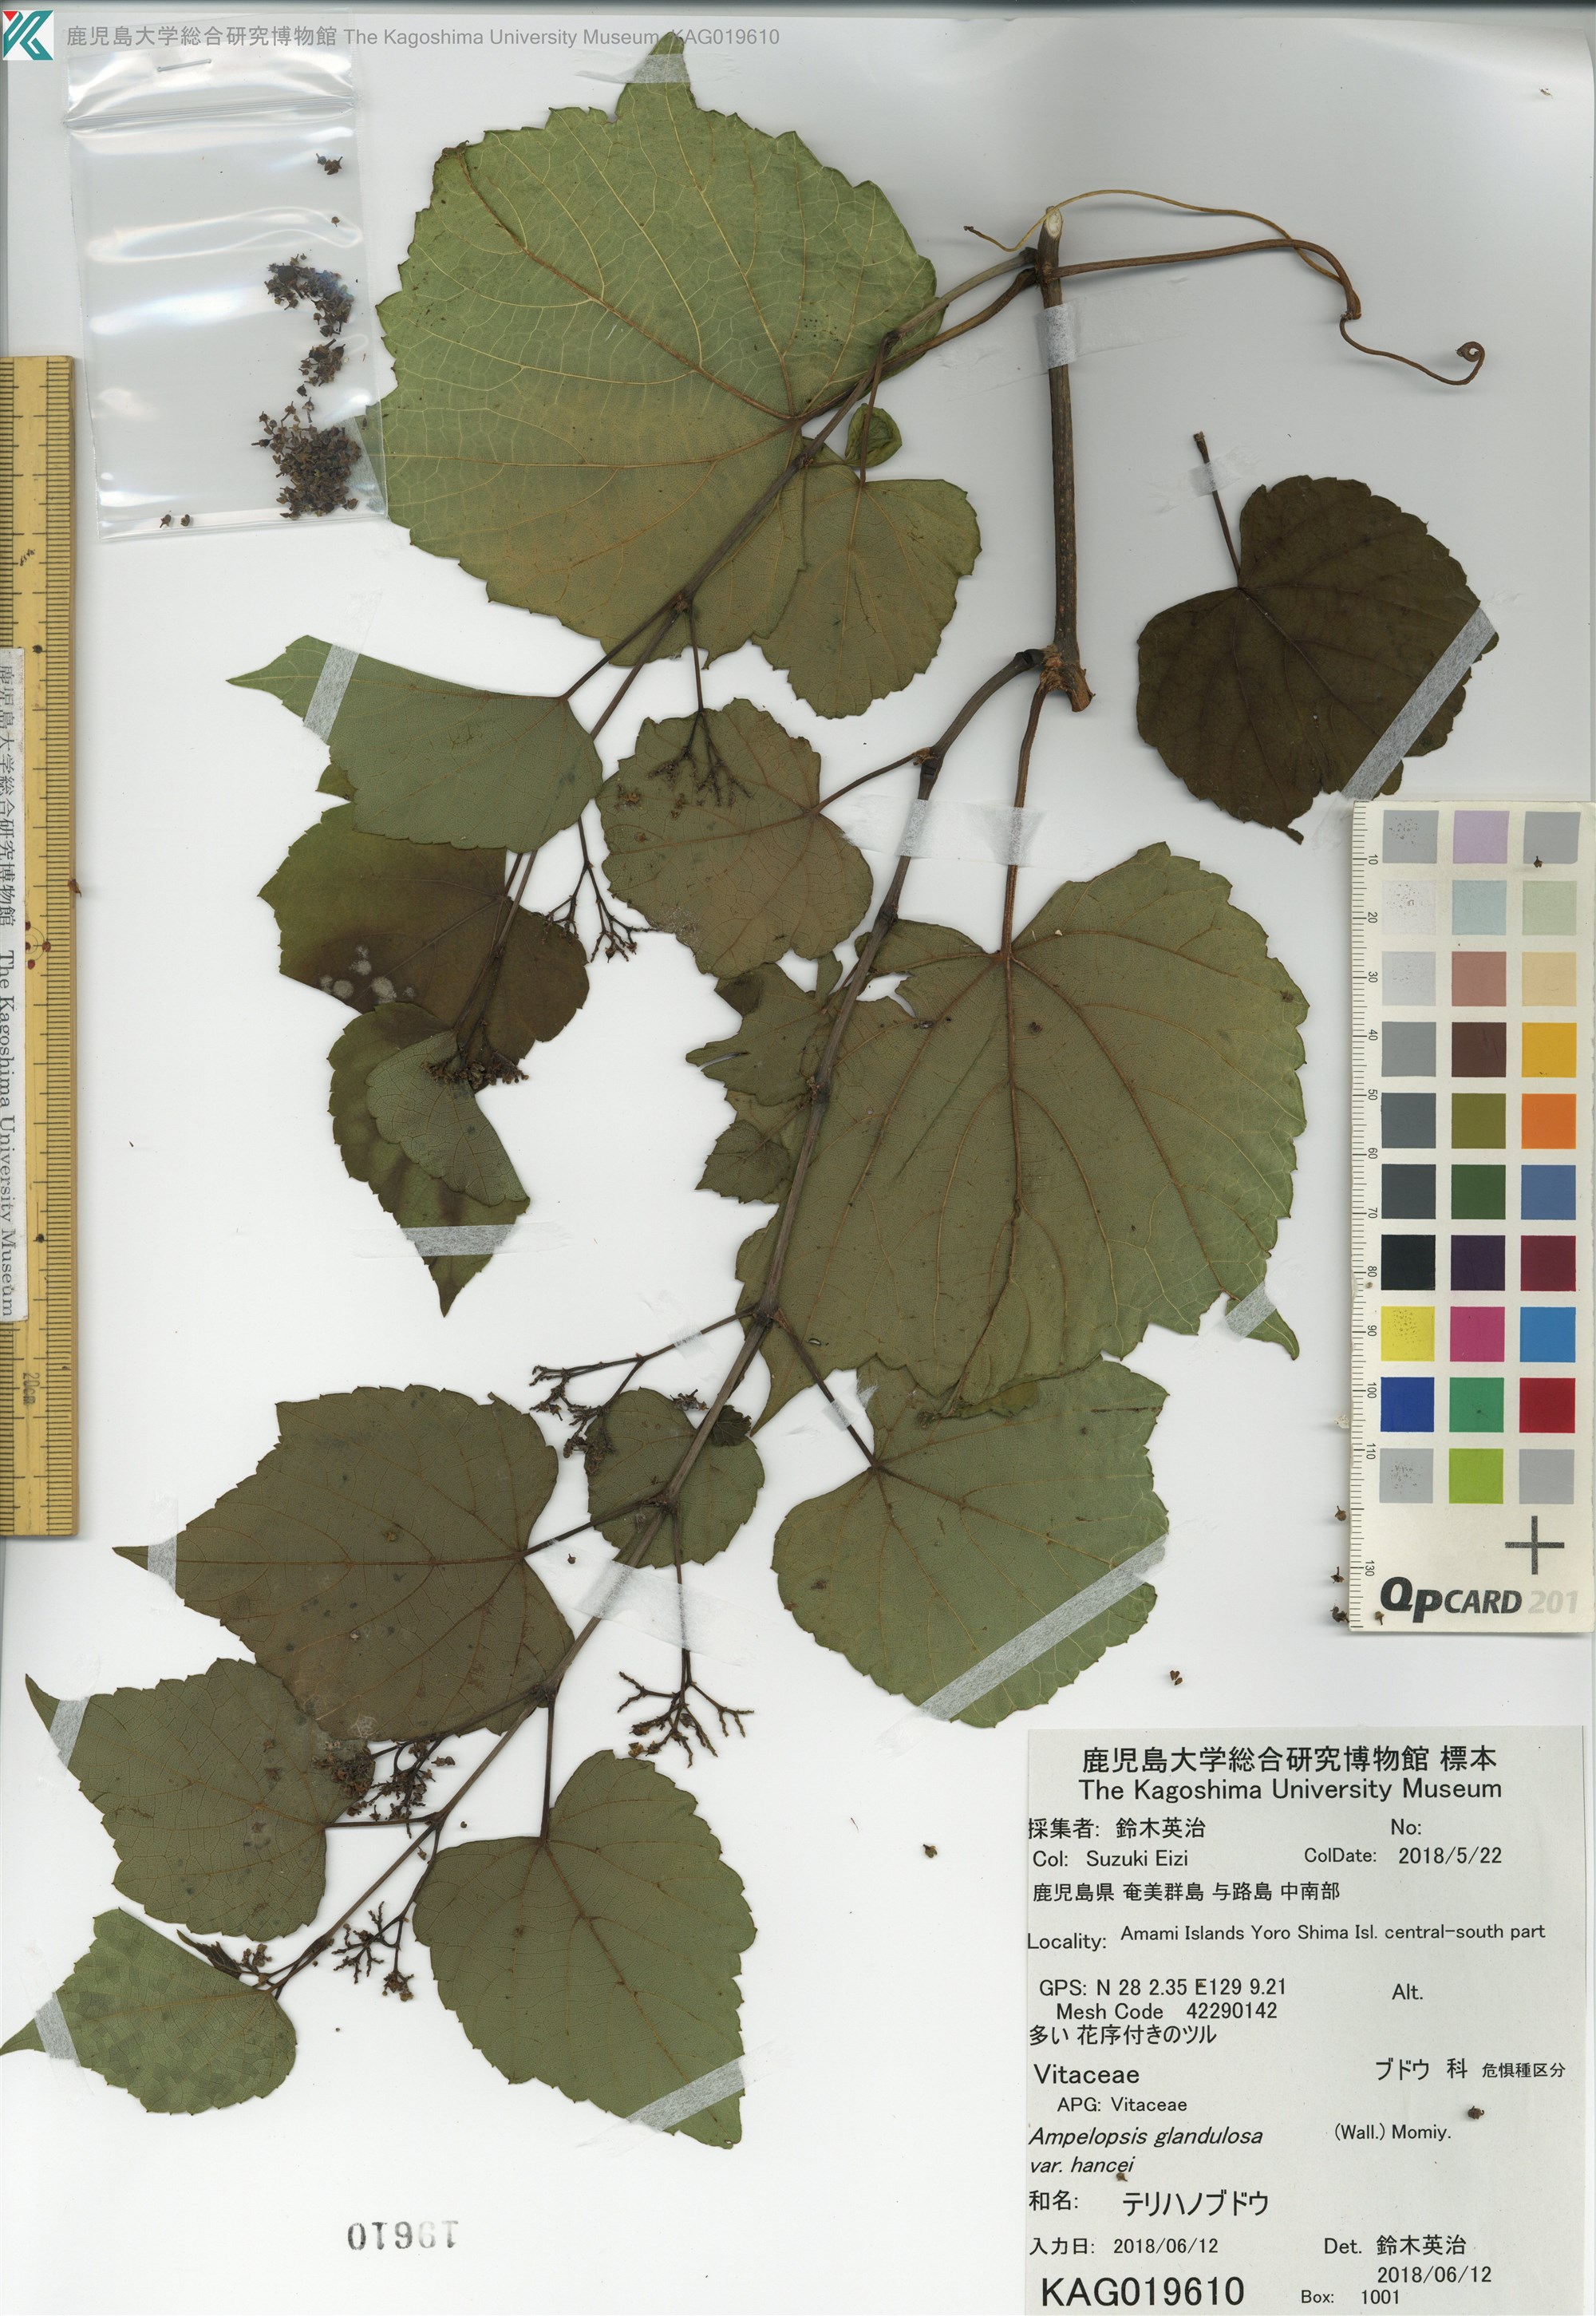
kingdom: Plantae
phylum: Tracheophyta
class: Magnoliopsida
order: Vitales
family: Vitaceae
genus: Ampelopsis
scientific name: Ampelopsis glandulosa
